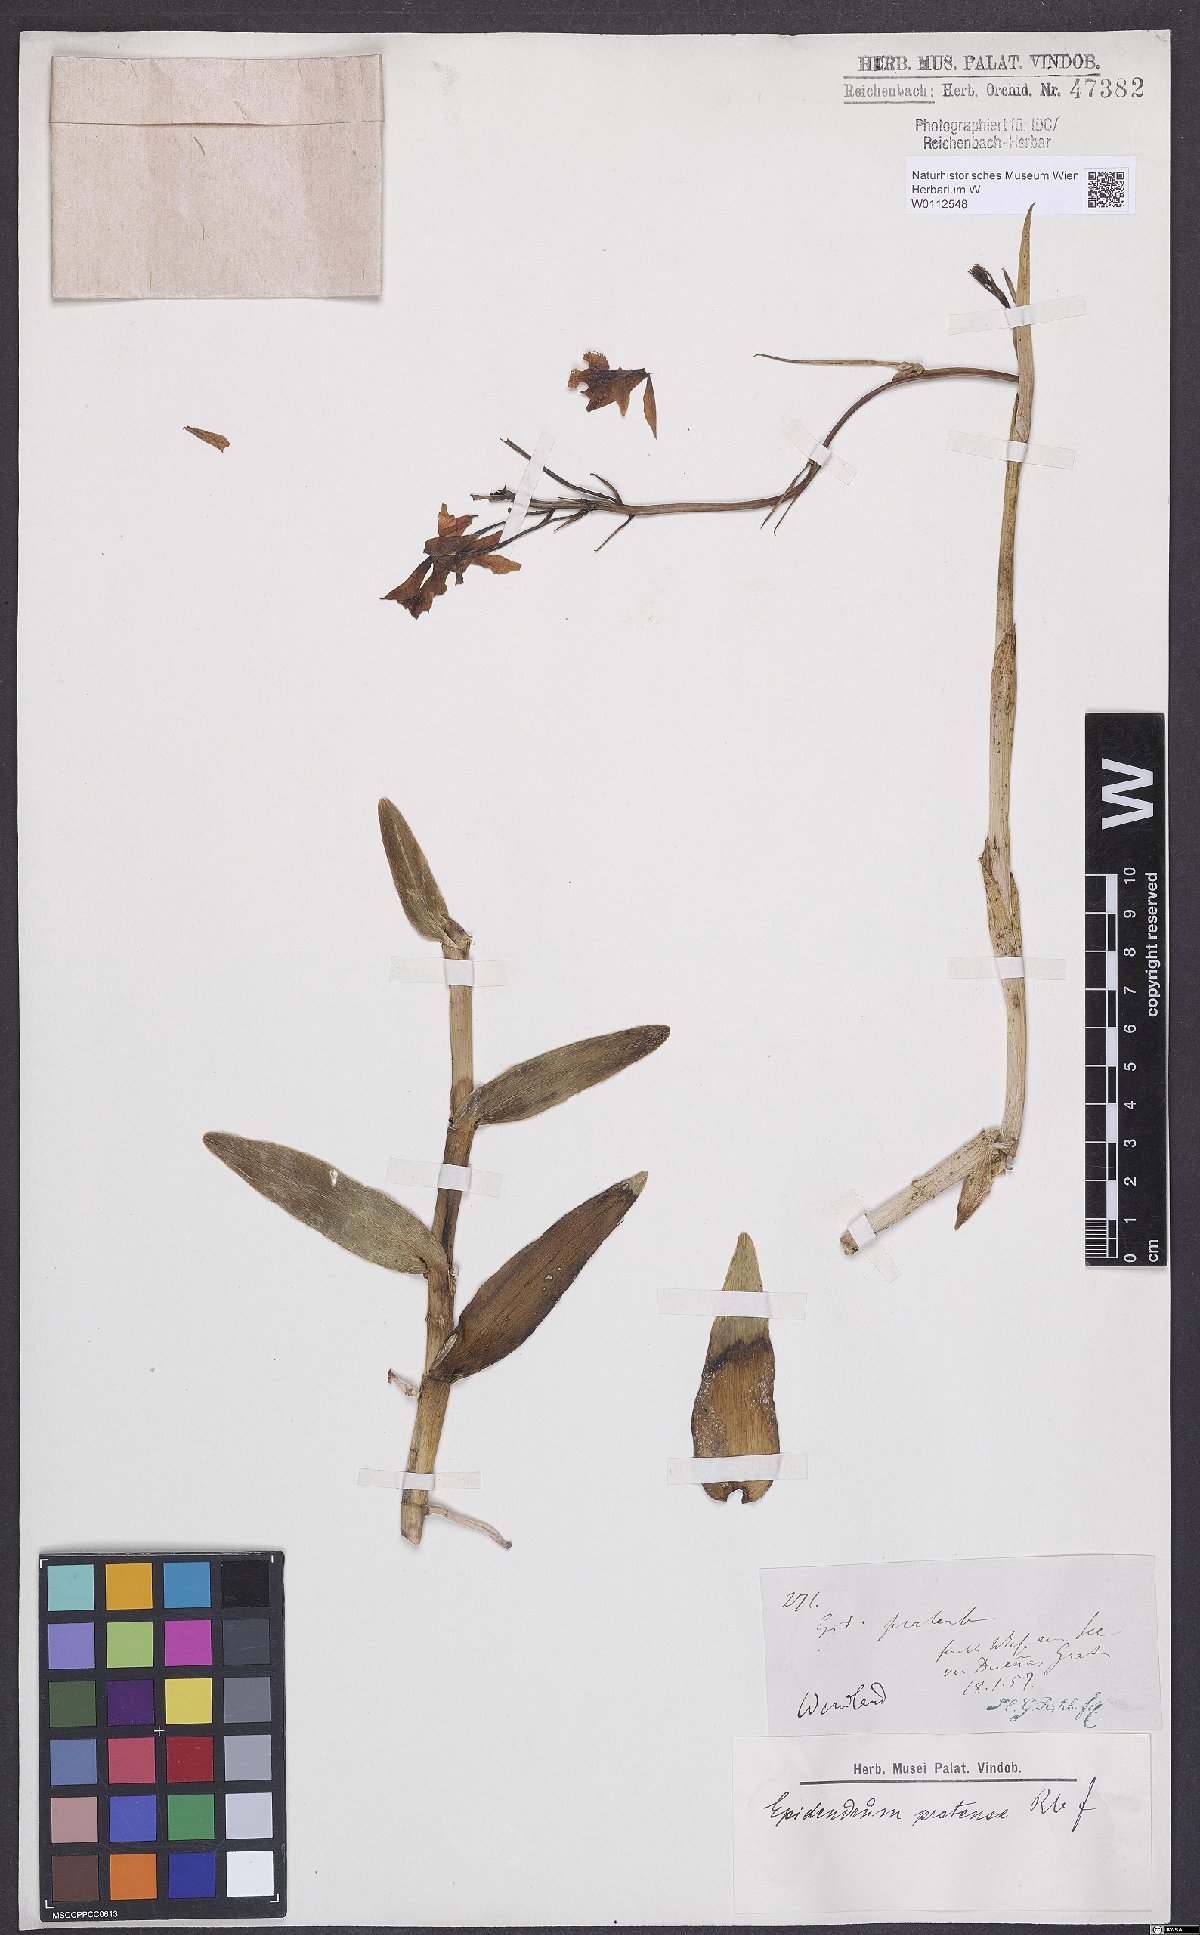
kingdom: Plantae
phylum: Tracheophyta
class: Liliopsida
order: Asparagales
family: Orchidaceae
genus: Epidendrum
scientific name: Epidendrum radicans
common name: Fire star orchid
